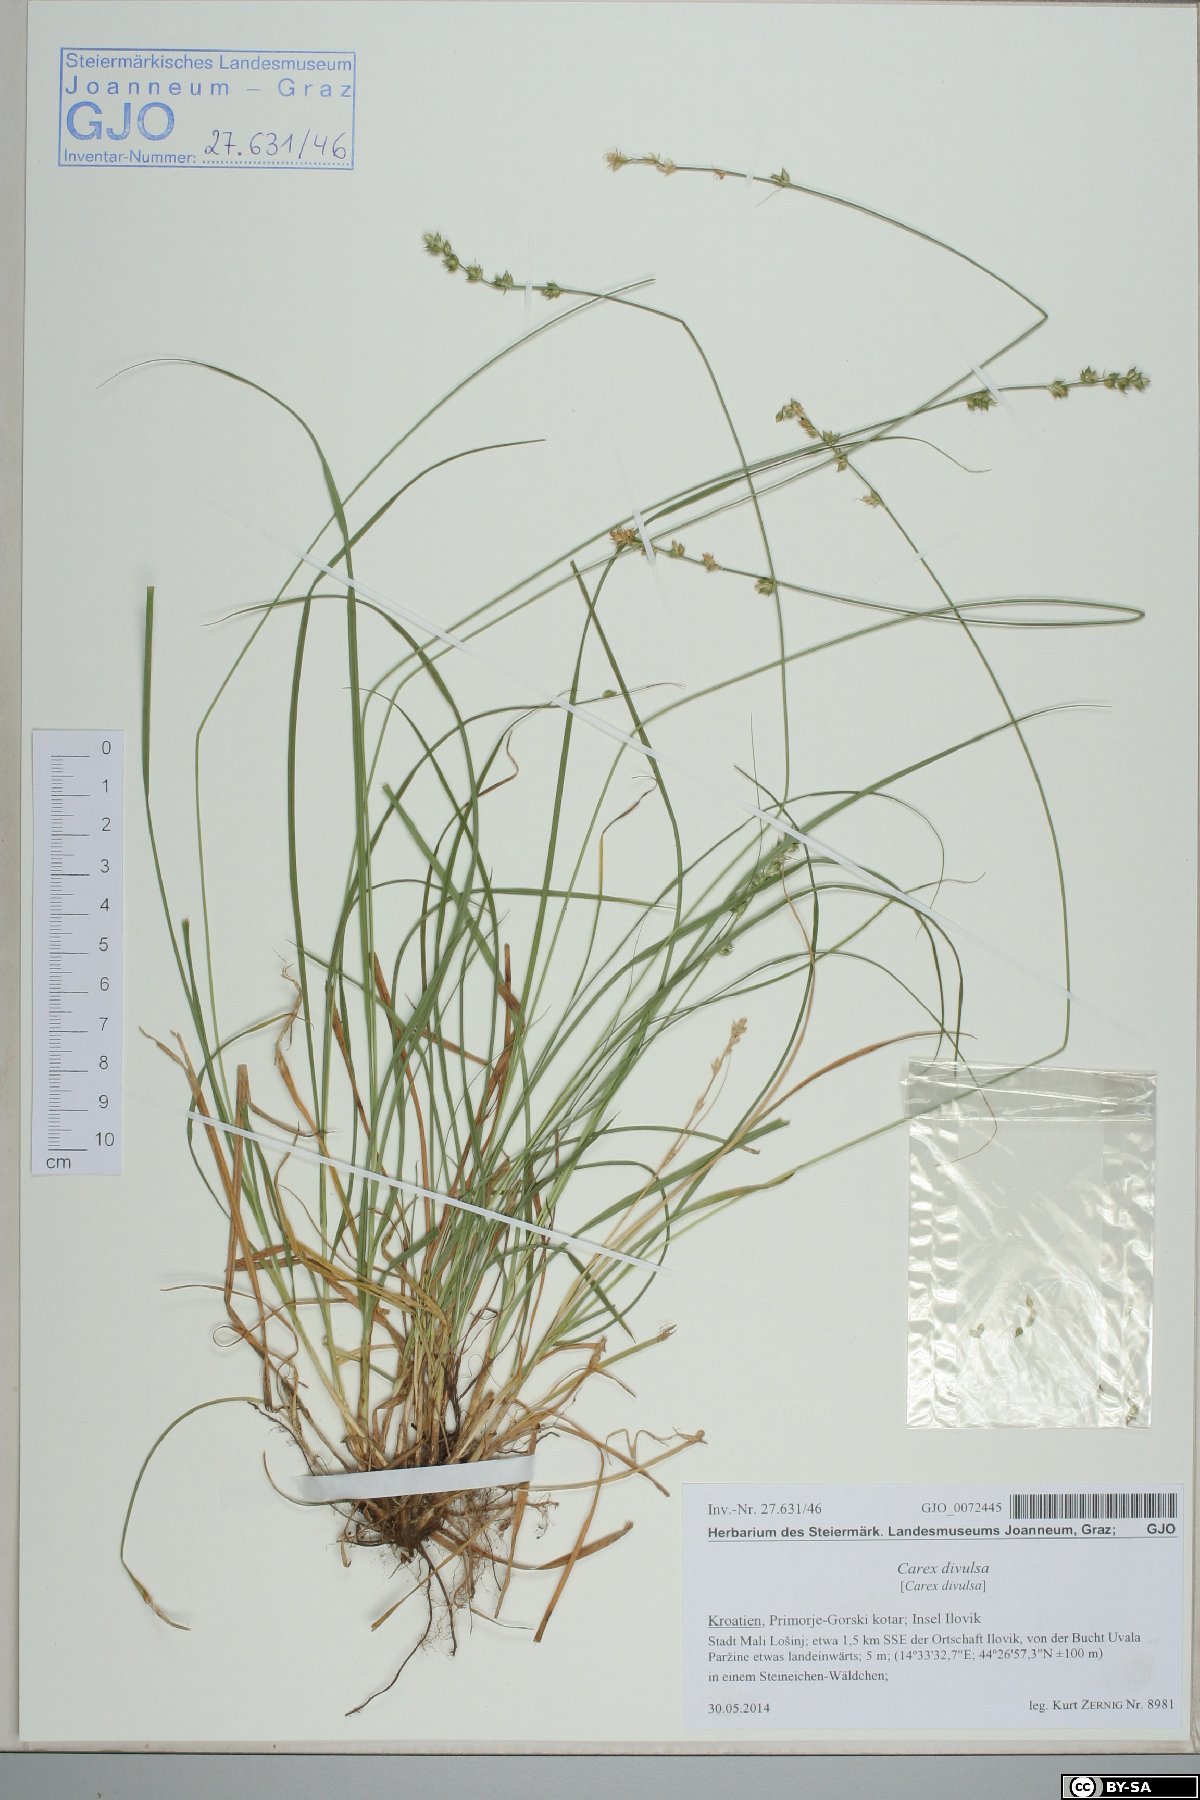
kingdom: Plantae
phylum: Tracheophyta
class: Liliopsida
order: Poales
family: Cyperaceae
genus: Carex
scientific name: Carex divulsa
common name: Grassland sedge
